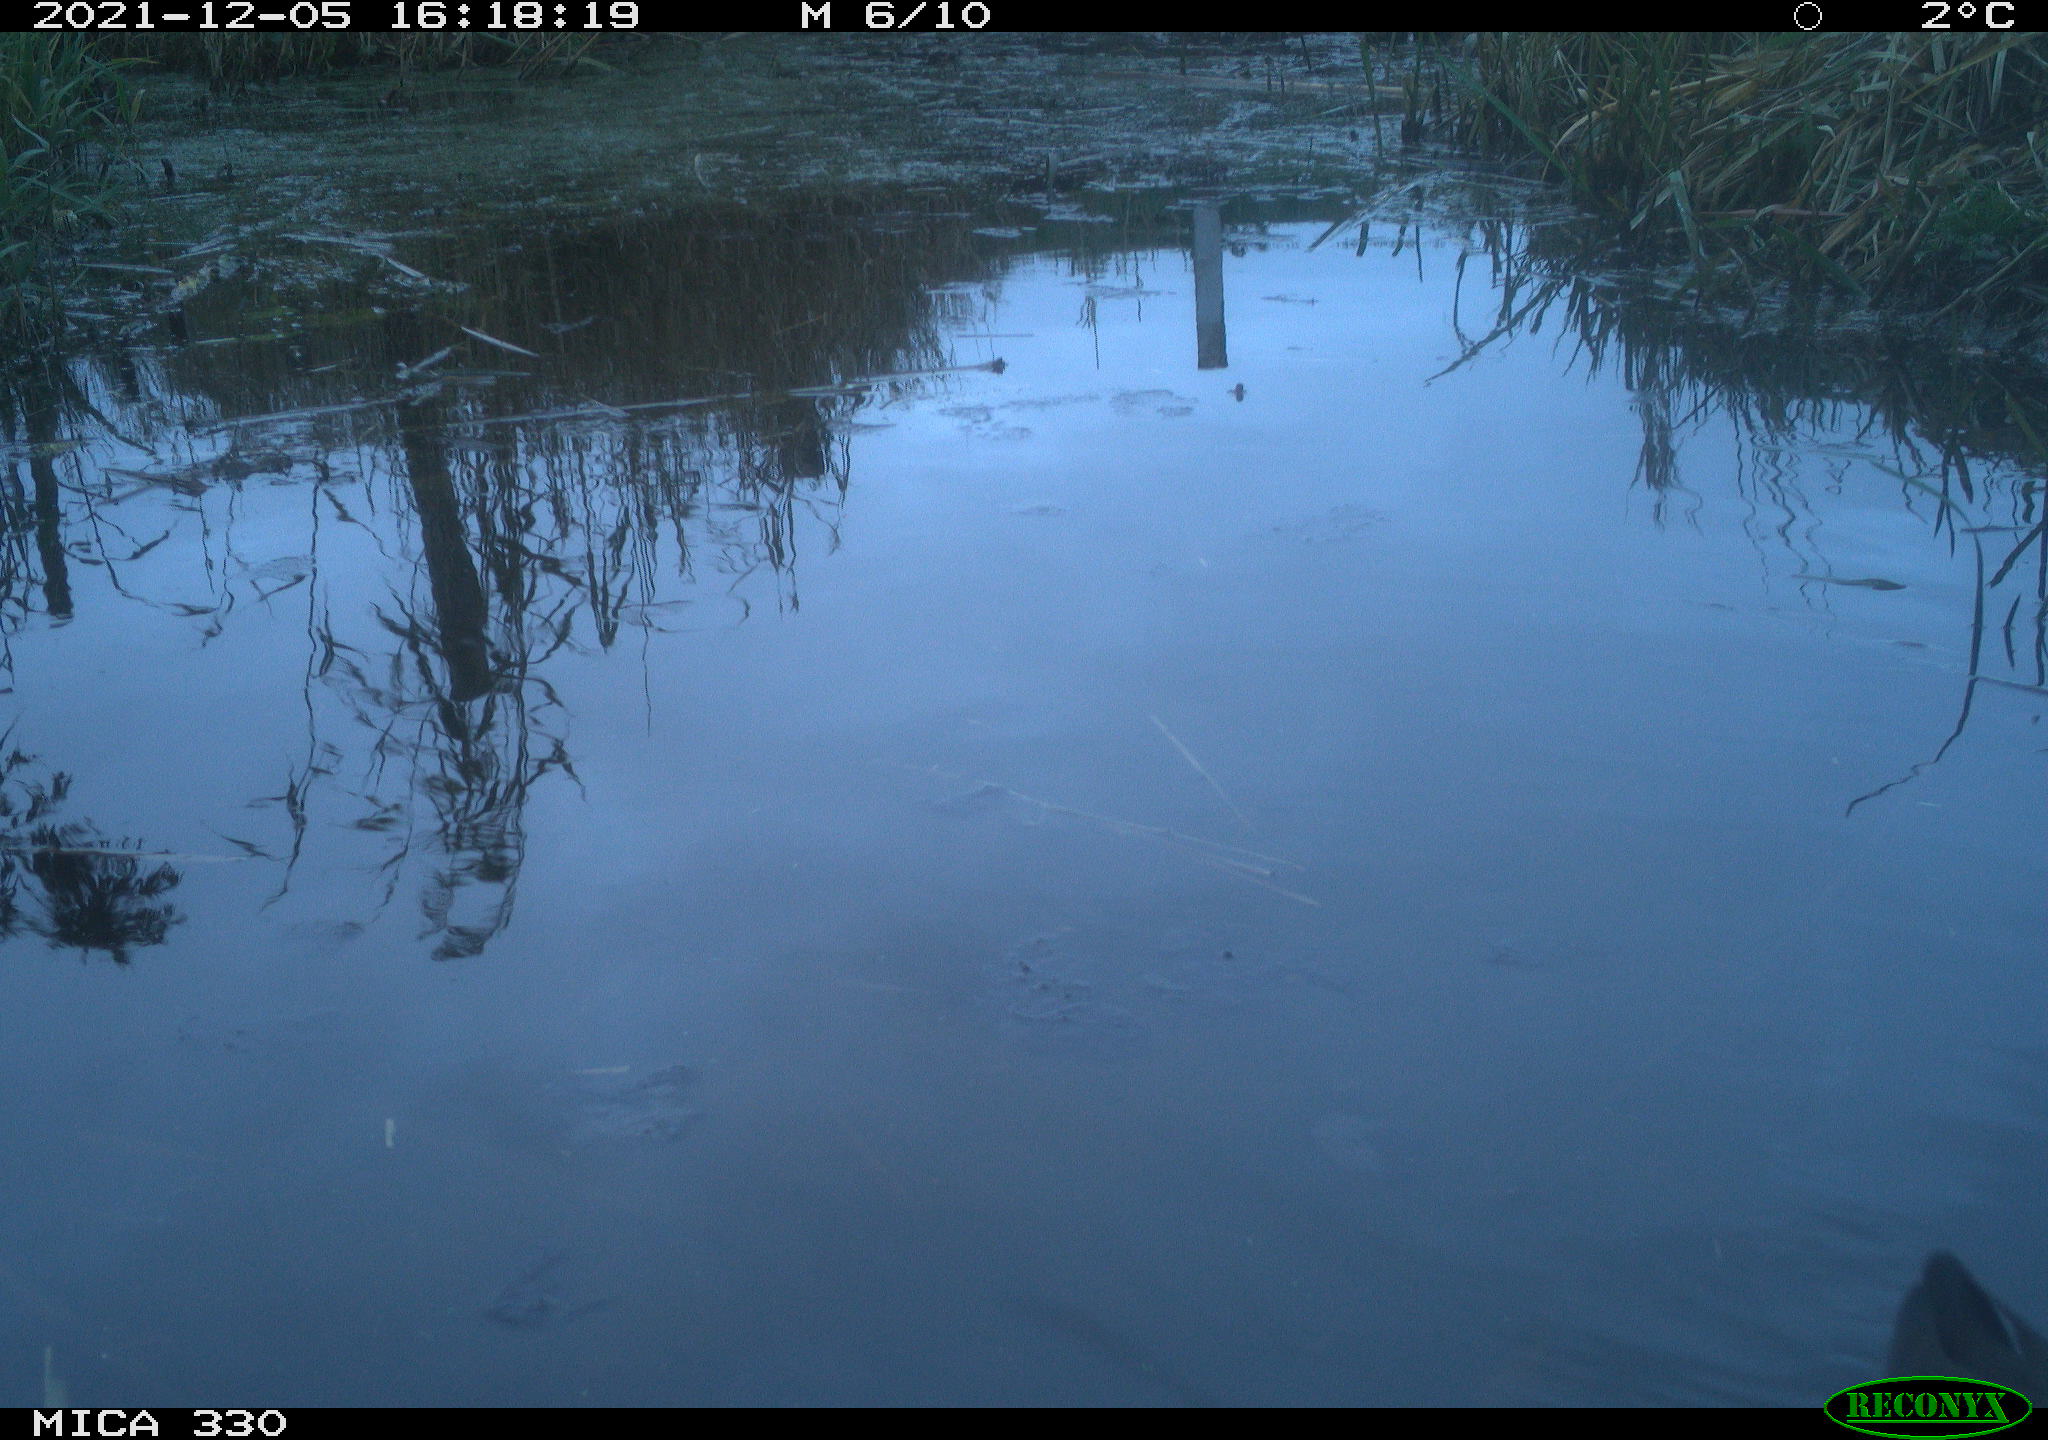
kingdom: Animalia
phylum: Chordata
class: Aves
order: Gruiformes
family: Rallidae
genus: Gallinula
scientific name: Gallinula chloropus
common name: Common moorhen
